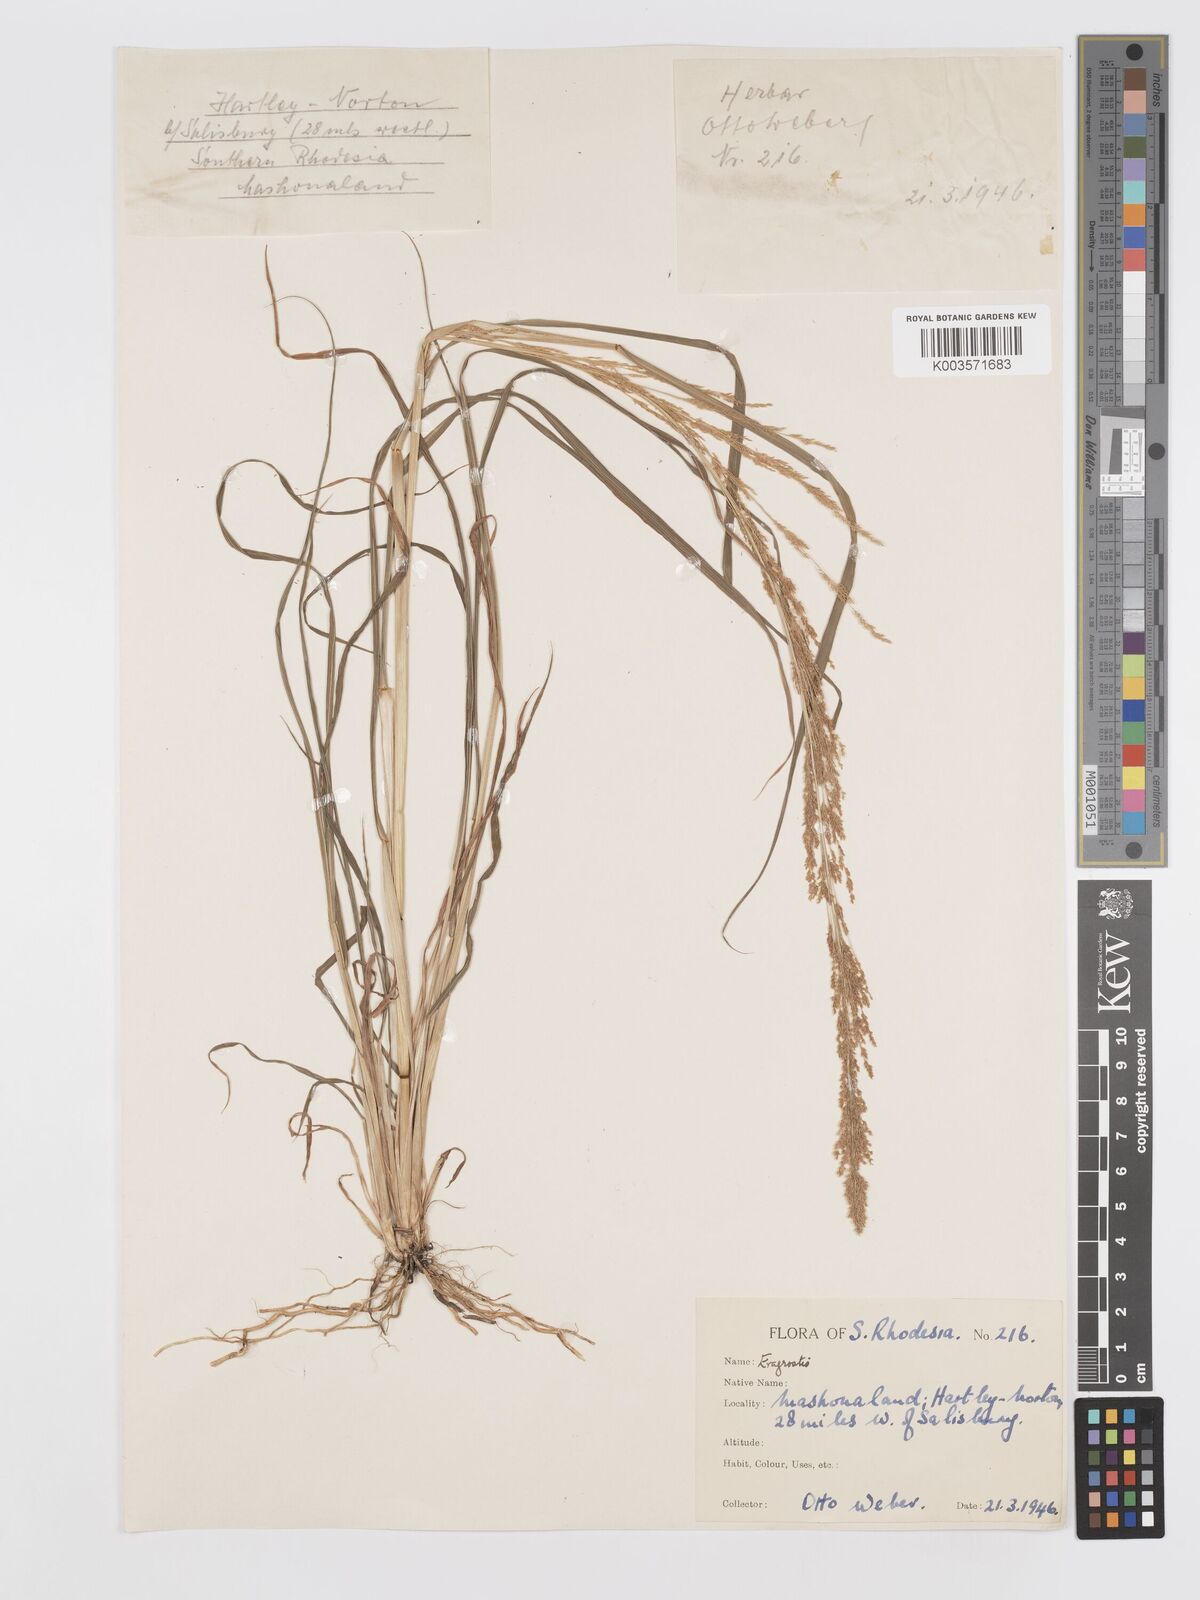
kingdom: Plantae
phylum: Tracheophyta
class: Liliopsida
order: Poales
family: Poaceae
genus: Eragrostis
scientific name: Eragrostis japonica
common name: Pond lovegrass
